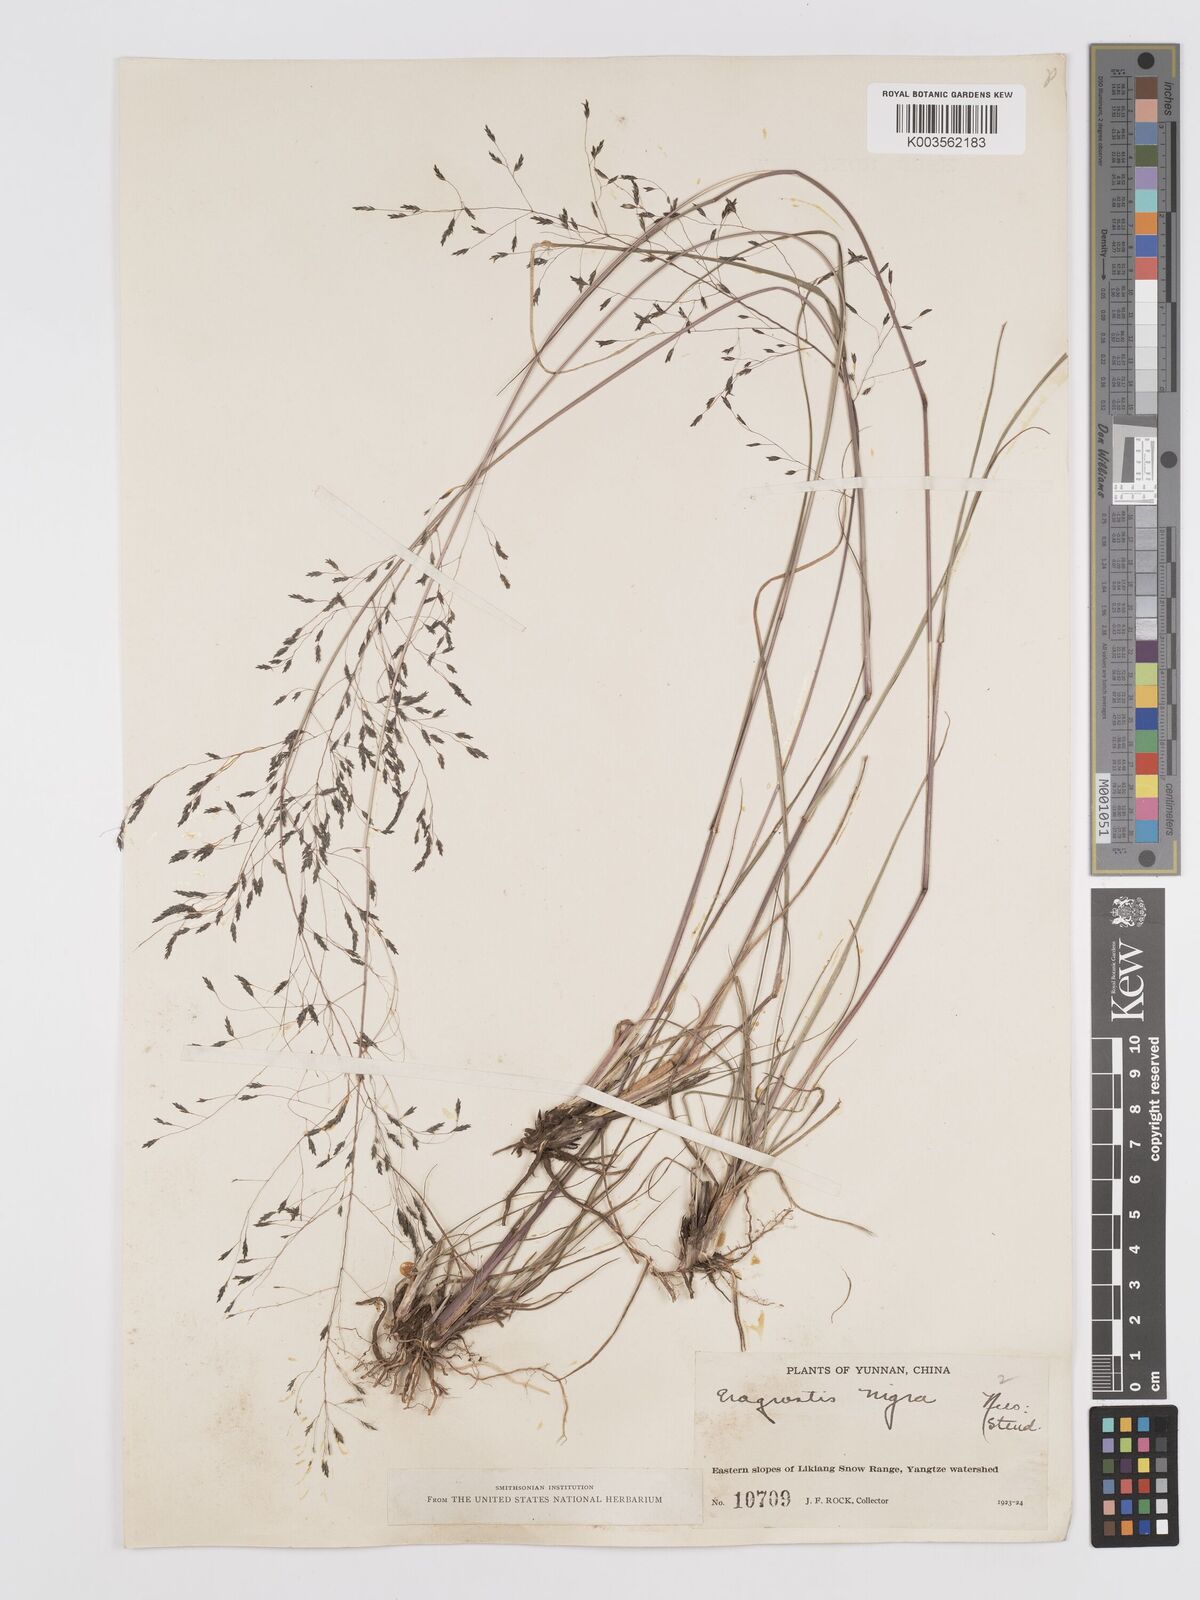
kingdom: Plantae
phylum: Tracheophyta
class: Liliopsida
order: Poales
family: Poaceae
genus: Eragrostis
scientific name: Eragrostis nigra
